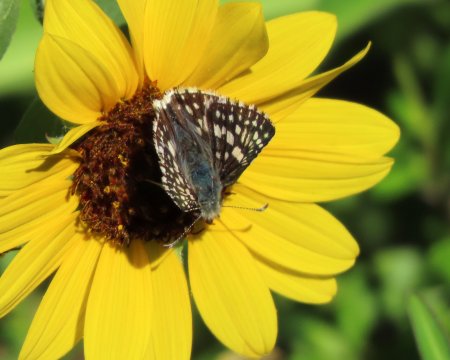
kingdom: Animalia
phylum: Arthropoda
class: Insecta
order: Lepidoptera
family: Hesperiidae
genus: Pyrgus
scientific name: Pyrgus communis
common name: Common Checkered-Skipper
